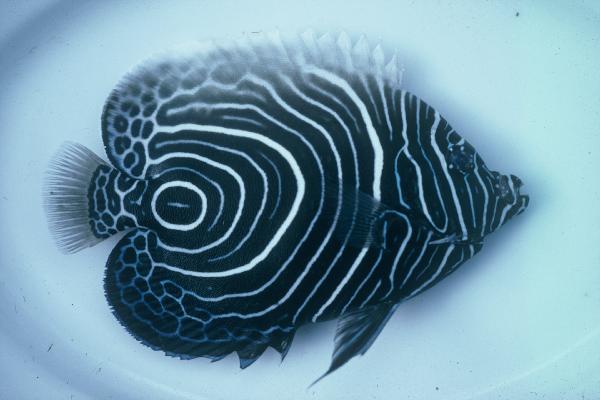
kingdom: Animalia
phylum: Chordata
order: Perciformes
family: Pomacanthidae
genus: Pomacanthus
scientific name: Pomacanthus imperator
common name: Emperor angelfish
